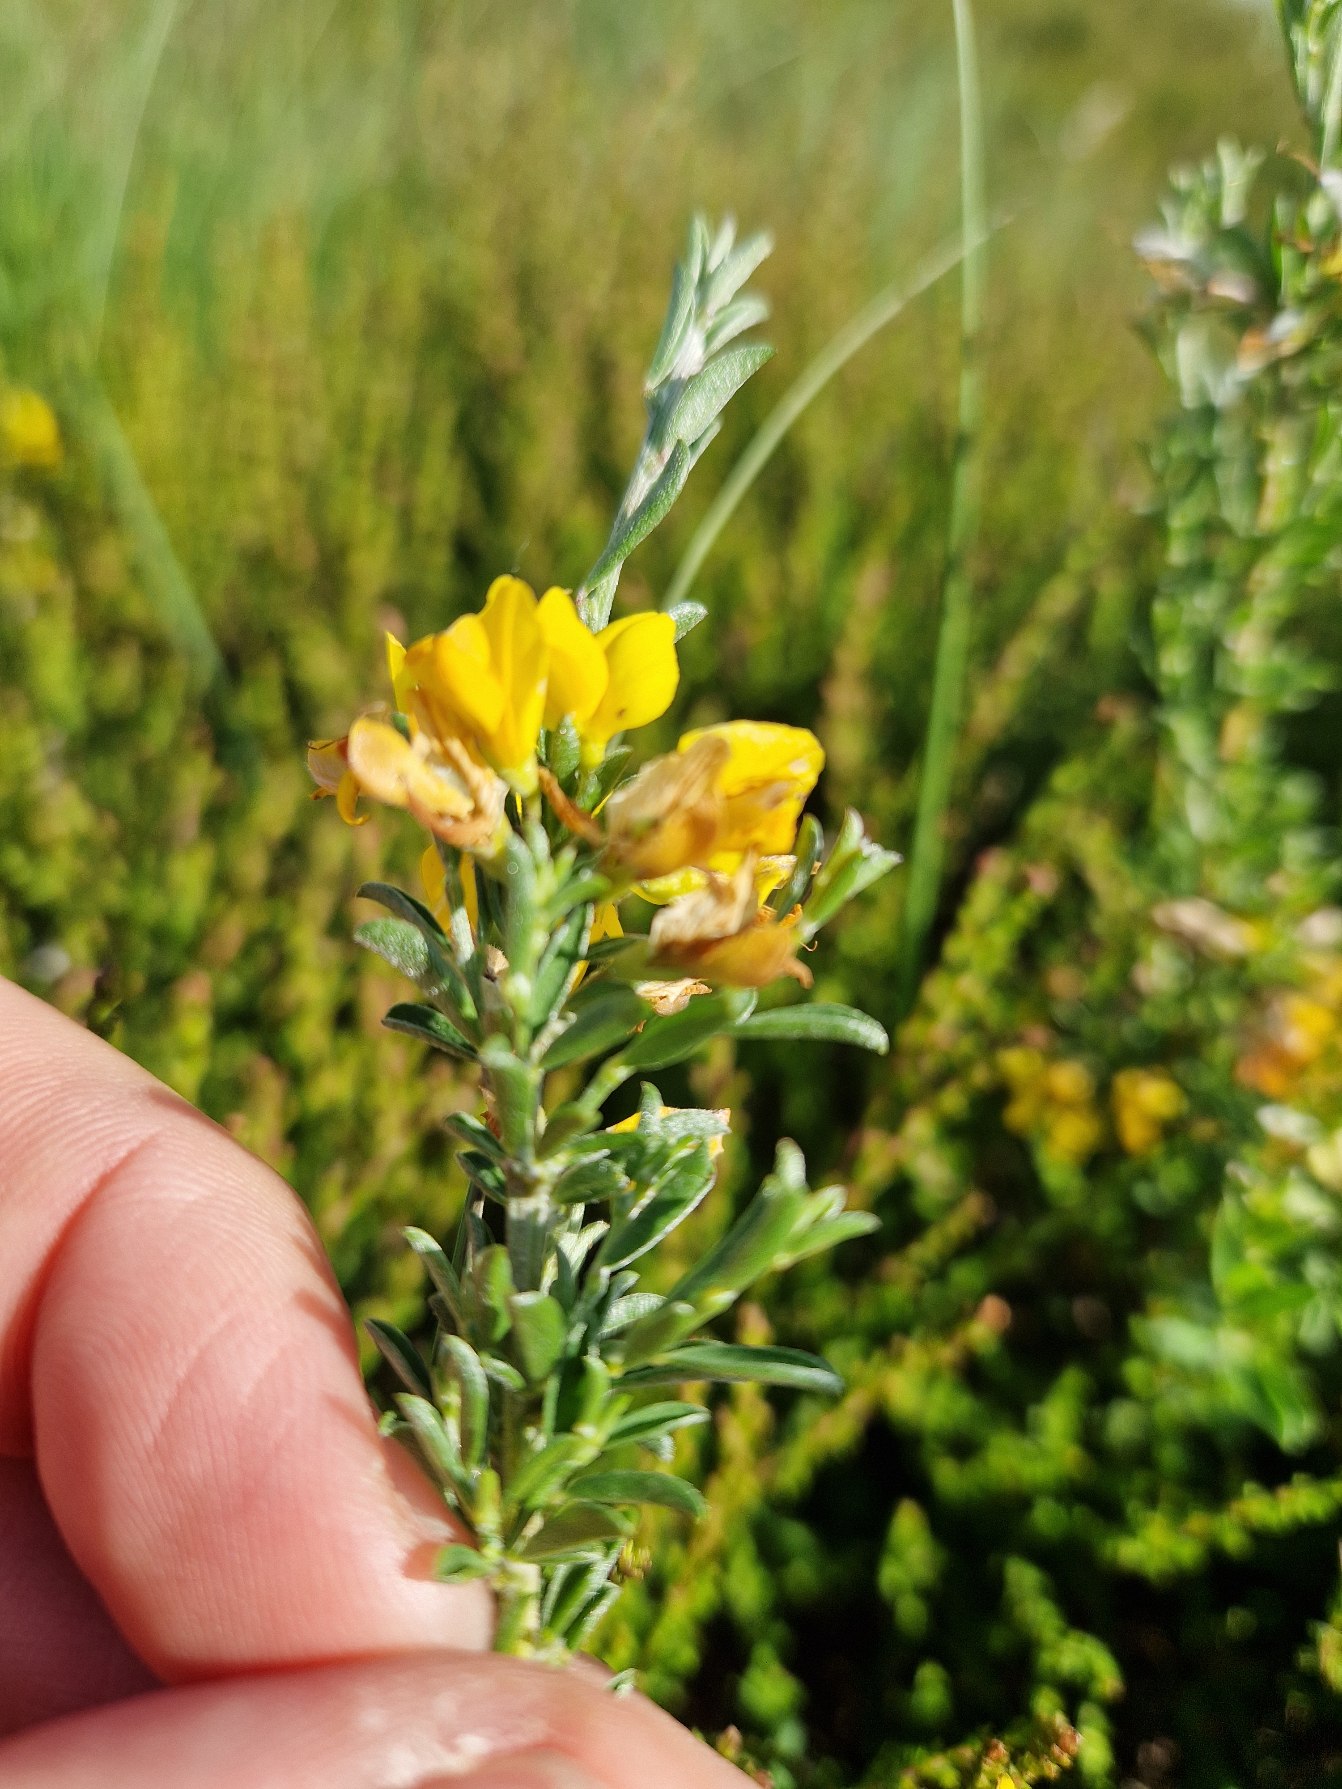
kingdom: Plantae
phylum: Tracheophyta
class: Magnoliopsida
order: Fabales
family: Fabaceae
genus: Genista
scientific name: Genista pilosa
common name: Håret visse
